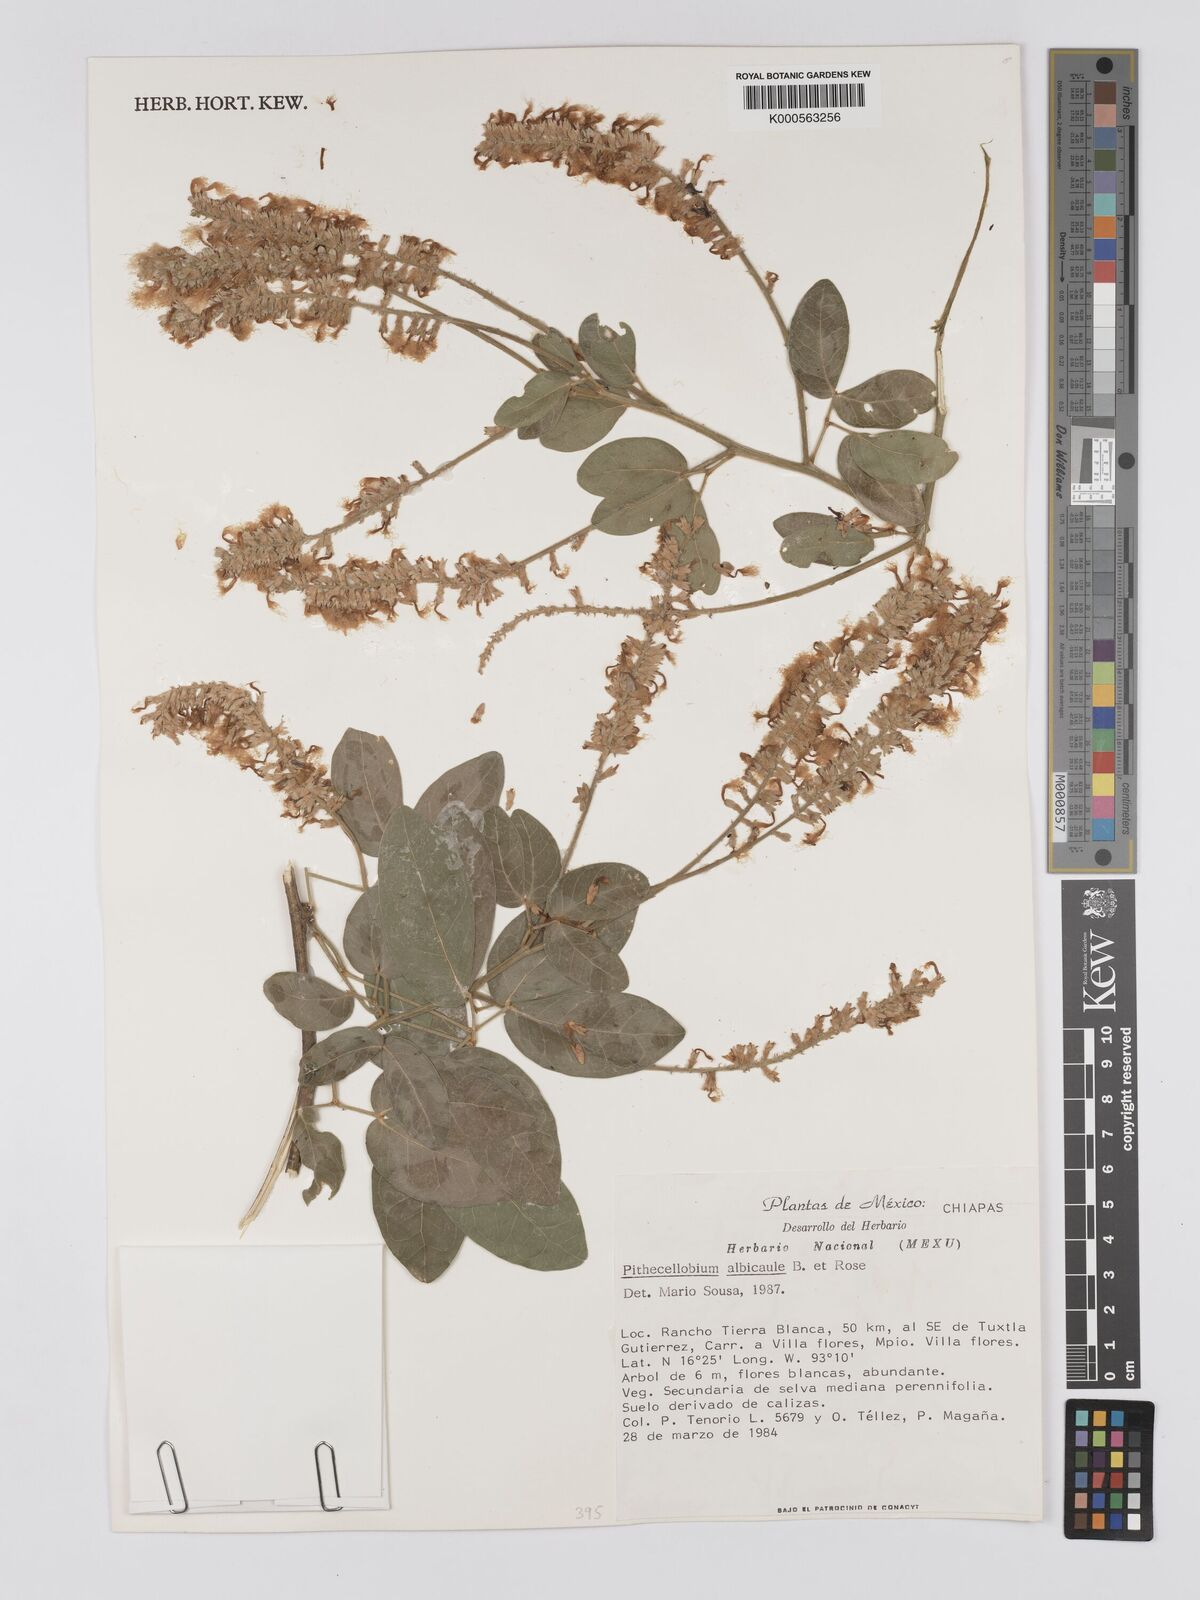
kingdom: Plantae
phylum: Tracheophyta
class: Magnoliopsida
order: Fabales
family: Fabaceae
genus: Pithecellobium
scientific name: Pithecellobium lanceolatum
